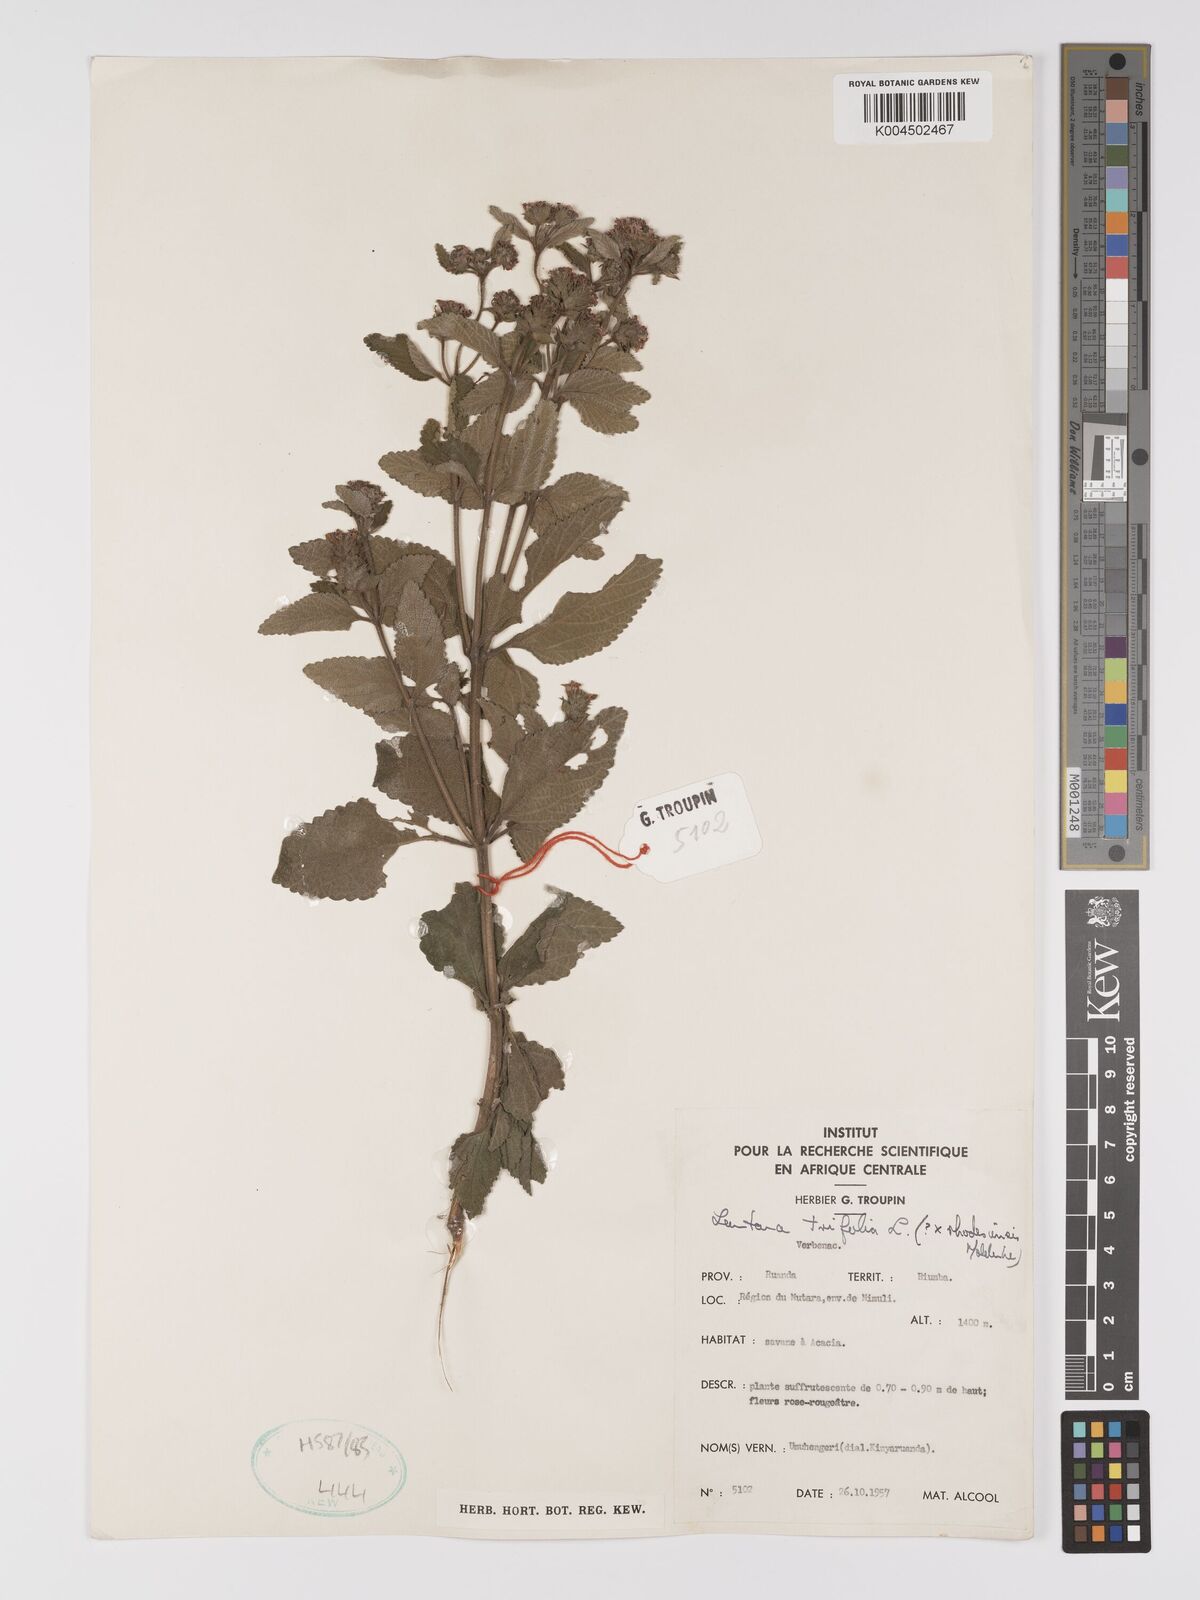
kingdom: Plantae
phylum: Tracheophyta
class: Magnoliopsida
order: Lamiales
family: Verbenaceae
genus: Lantana
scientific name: Lantana ukambensis
